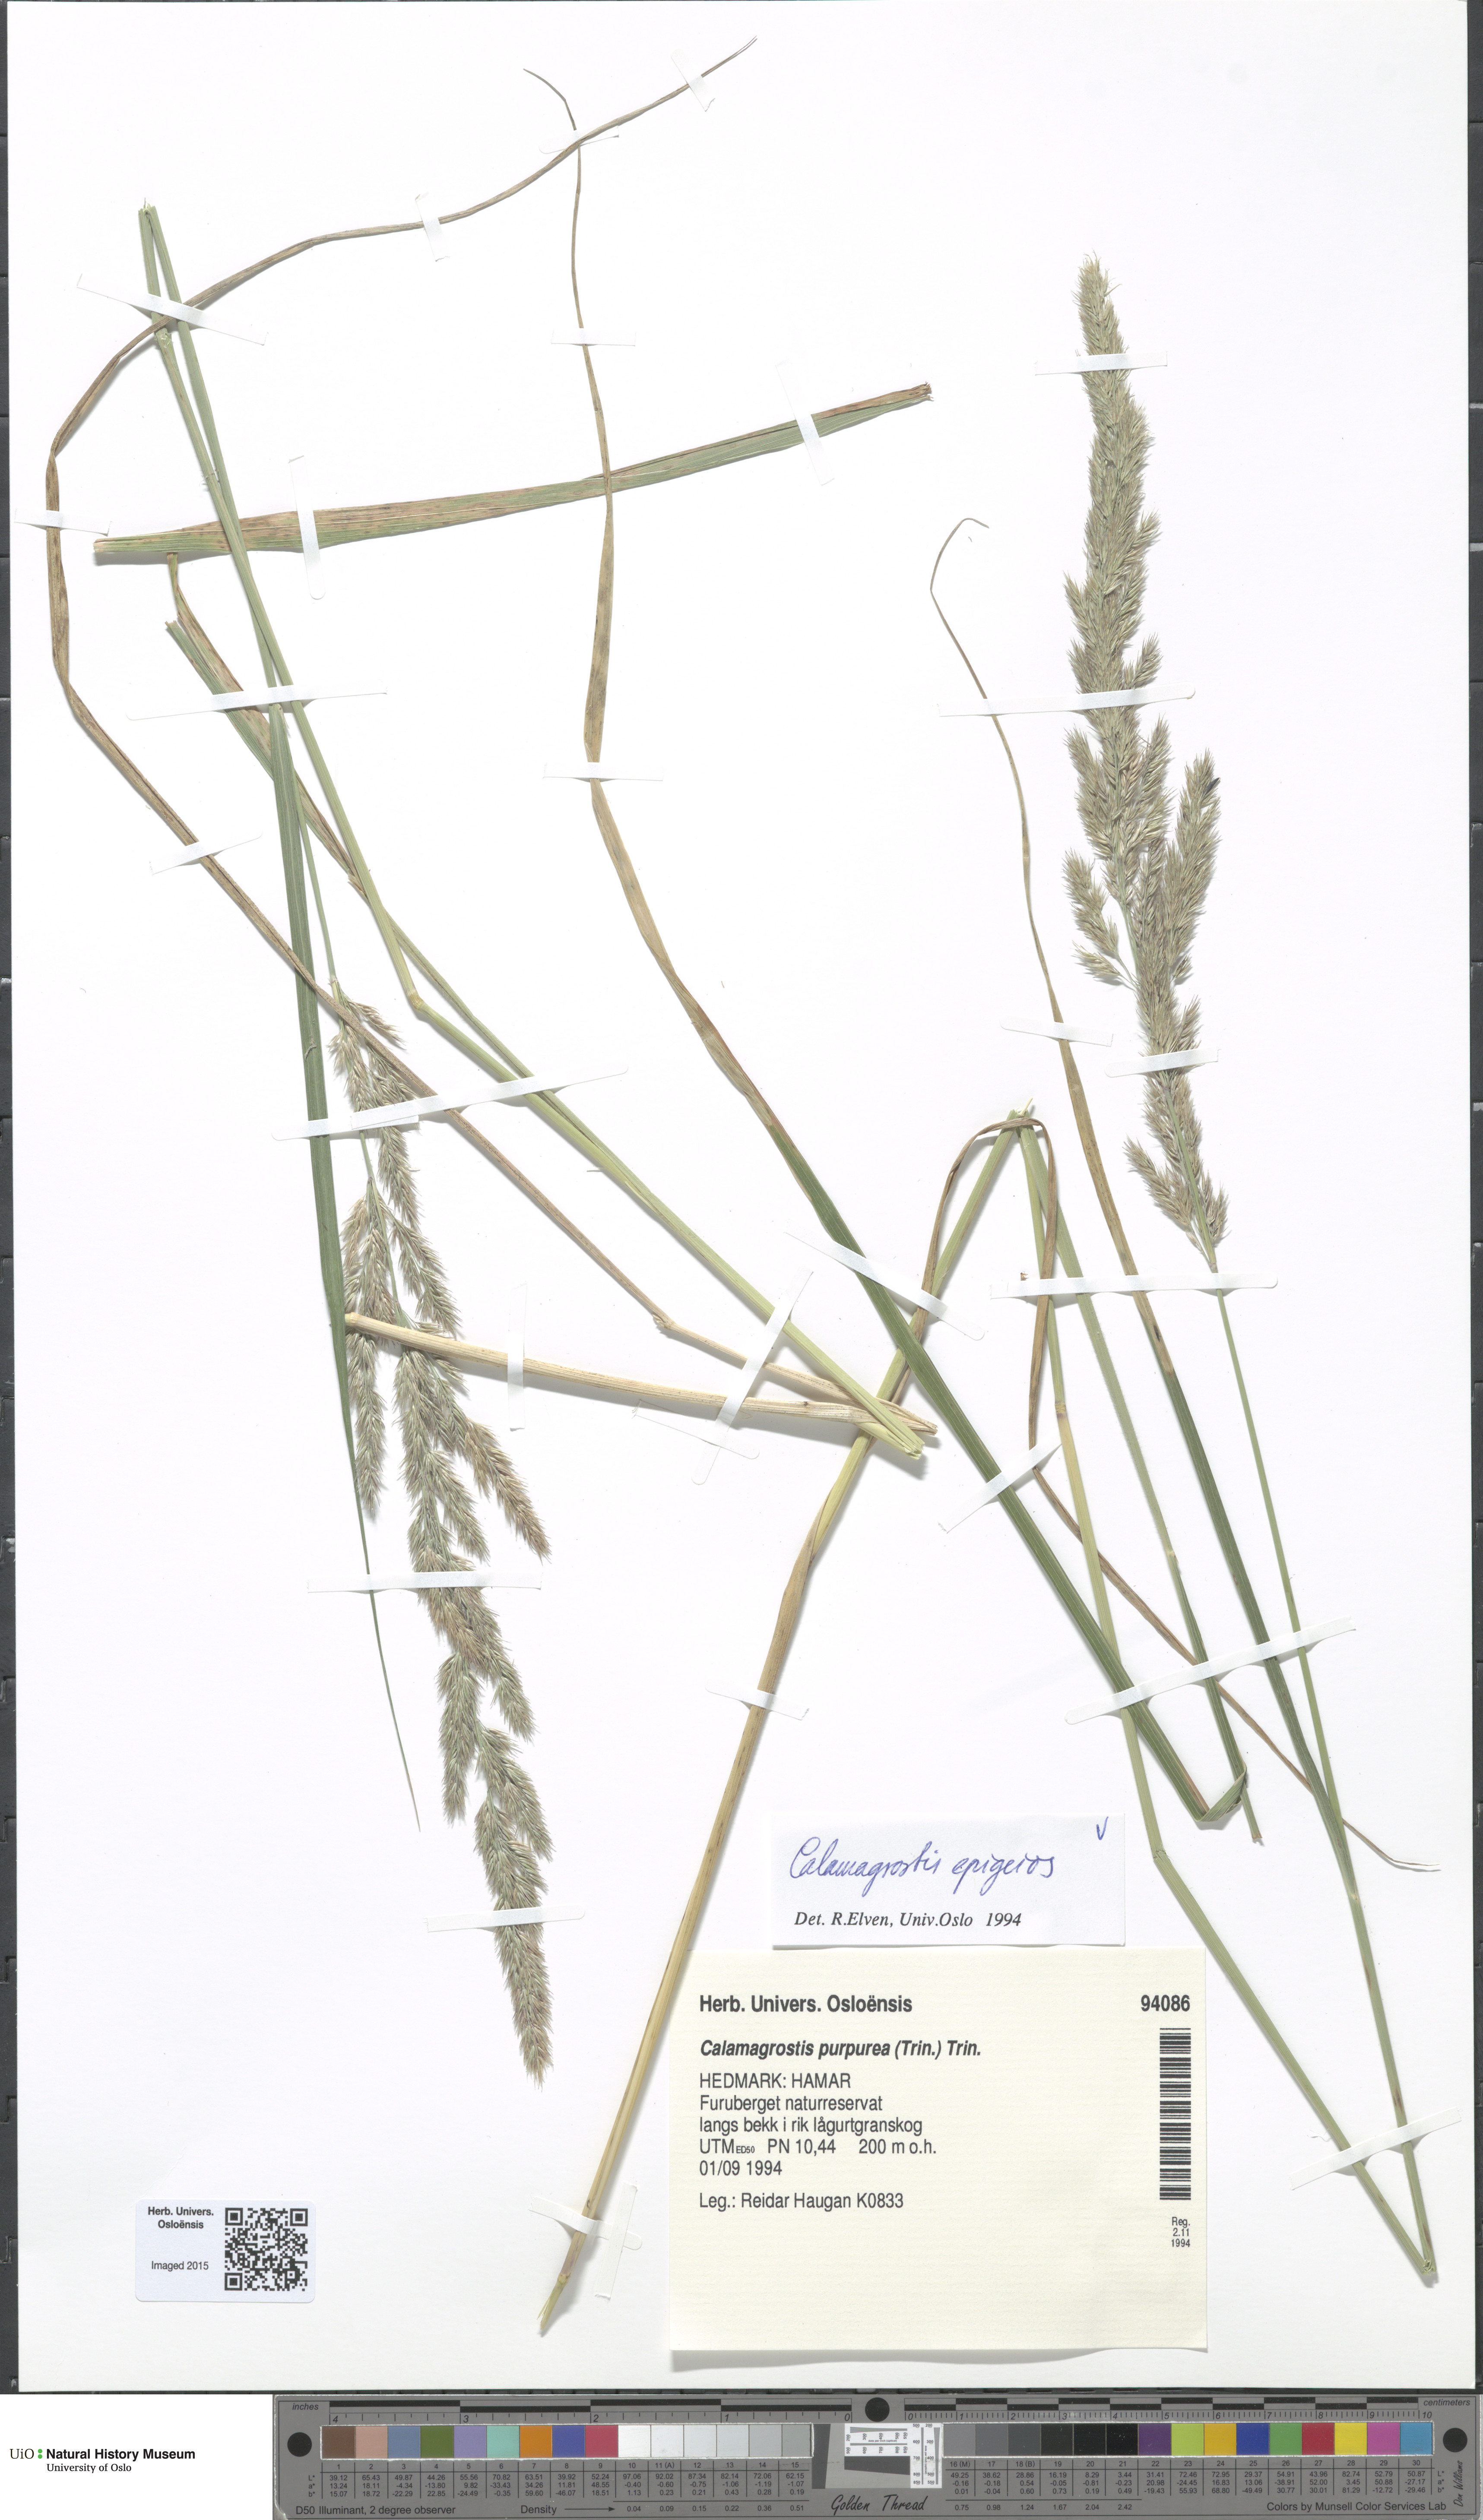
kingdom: Plantae
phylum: Tracheophyta
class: Liliopsida
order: Poales
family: Poaceae
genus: Calamagrostis
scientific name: Calamagrostis epigejos
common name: Wood small-reed
